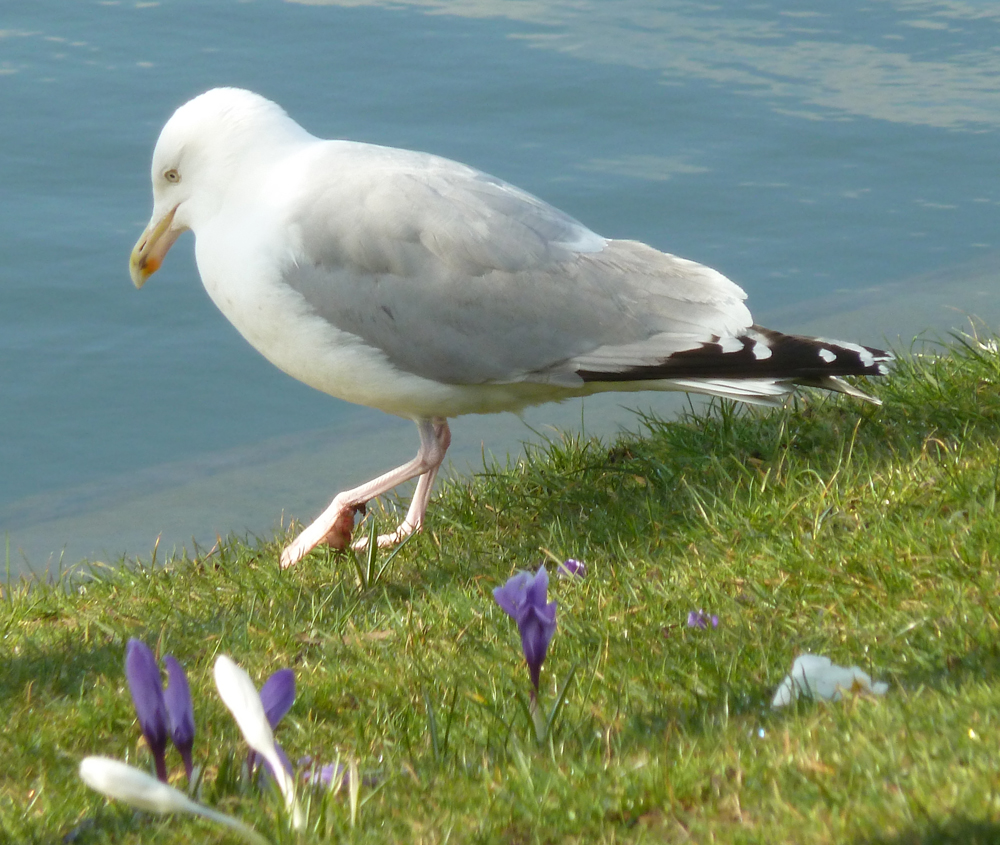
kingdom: Animalia
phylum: Chordata
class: Aves
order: Charadriiformes
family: Laridae
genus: Larus
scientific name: Larus argentatus
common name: Herring gull
